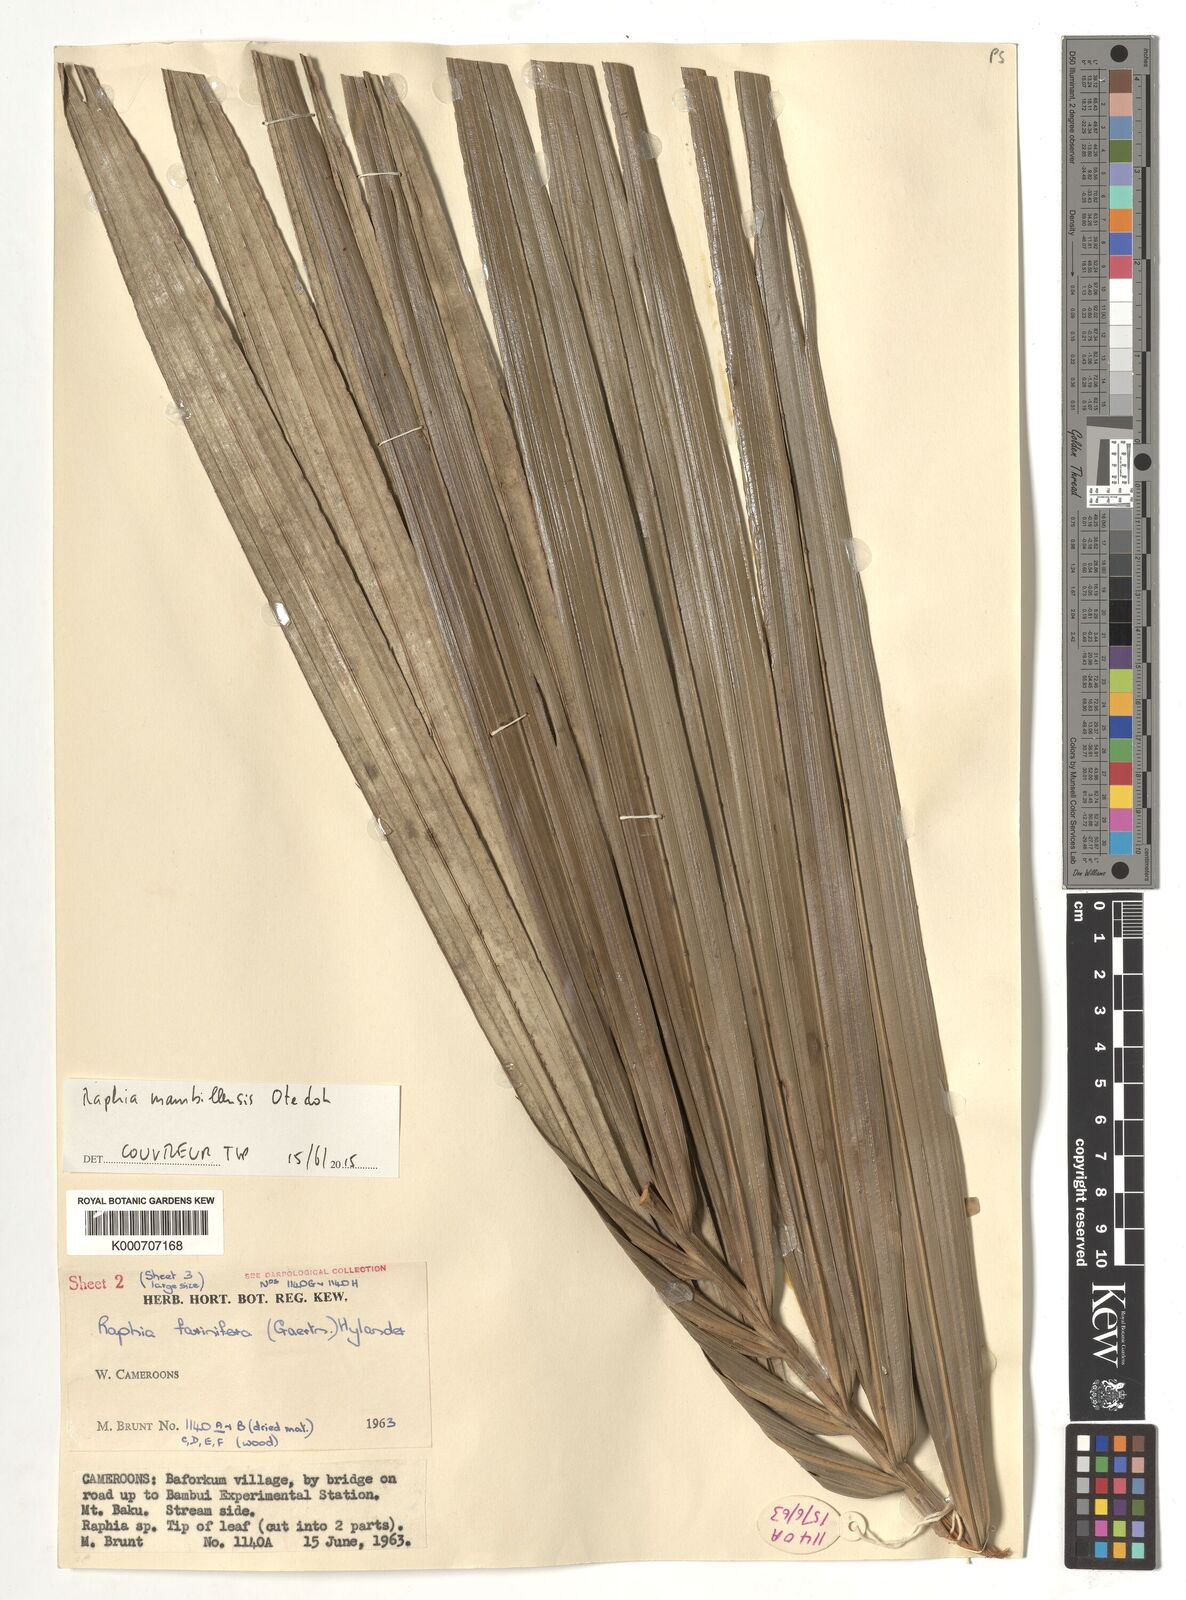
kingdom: Plantae
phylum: Tracheophyta
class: Liliopsida
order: Arecales
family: Arecaceae
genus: Raphia
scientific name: Raphia farinifera
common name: Raphia palm
